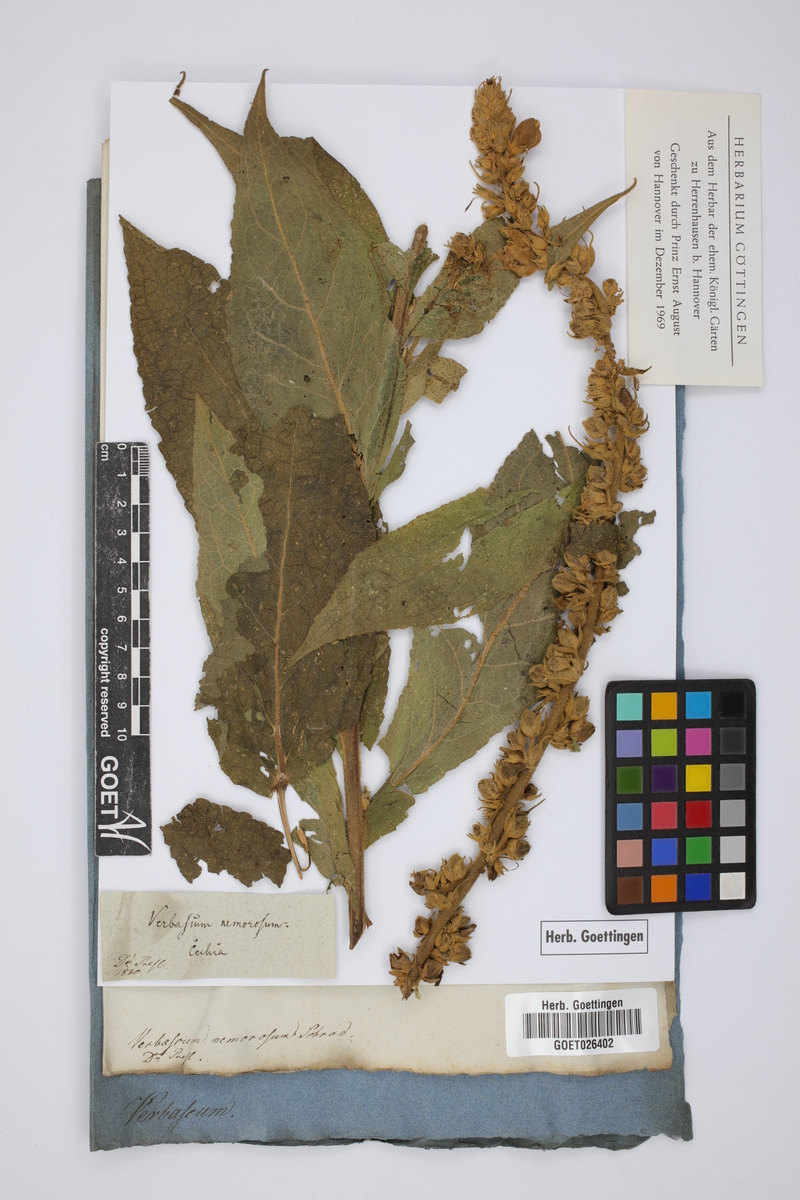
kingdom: Plantae
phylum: Tracheophyta
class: Magnoliopsida
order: Lamiales
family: Scrophulariaceae
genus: Verbascum
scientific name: Verbascum phlomoides
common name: Orange mullein
